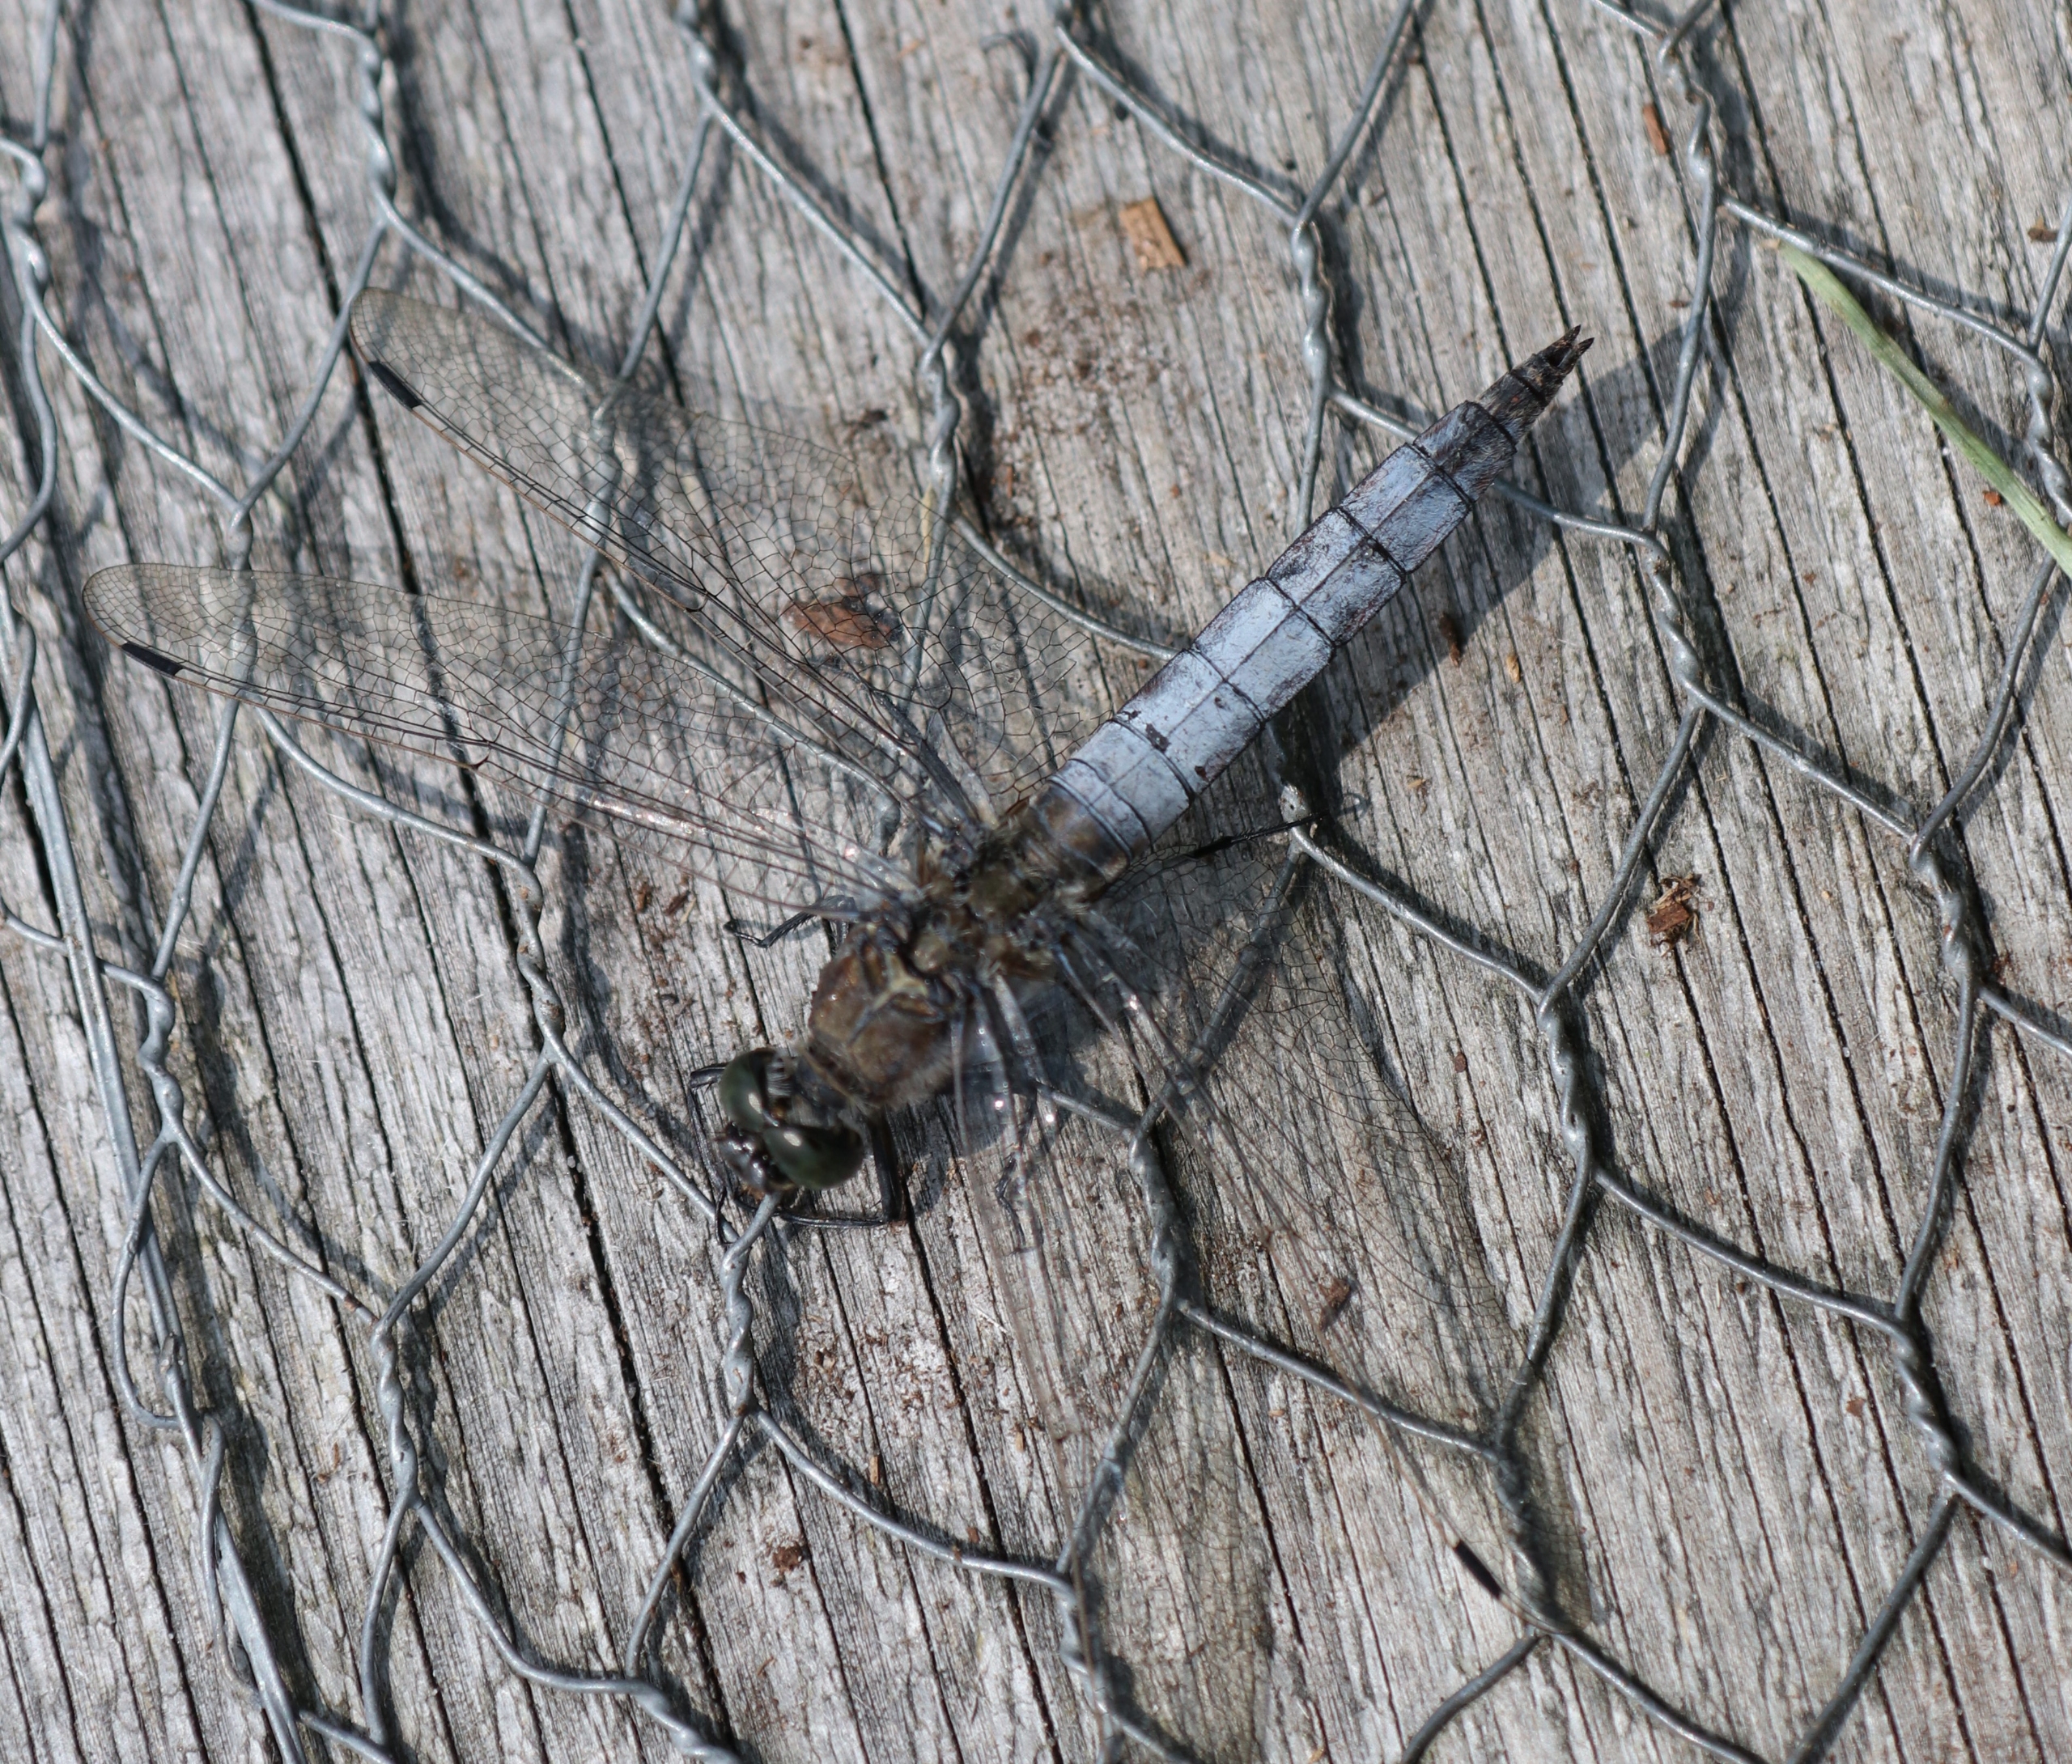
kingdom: Animalia
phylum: Arthropoda
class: Insecta
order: Odonata
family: Libellulidae
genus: Orthetrum
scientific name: Orthetrum cancellatum
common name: Stor blåpil
